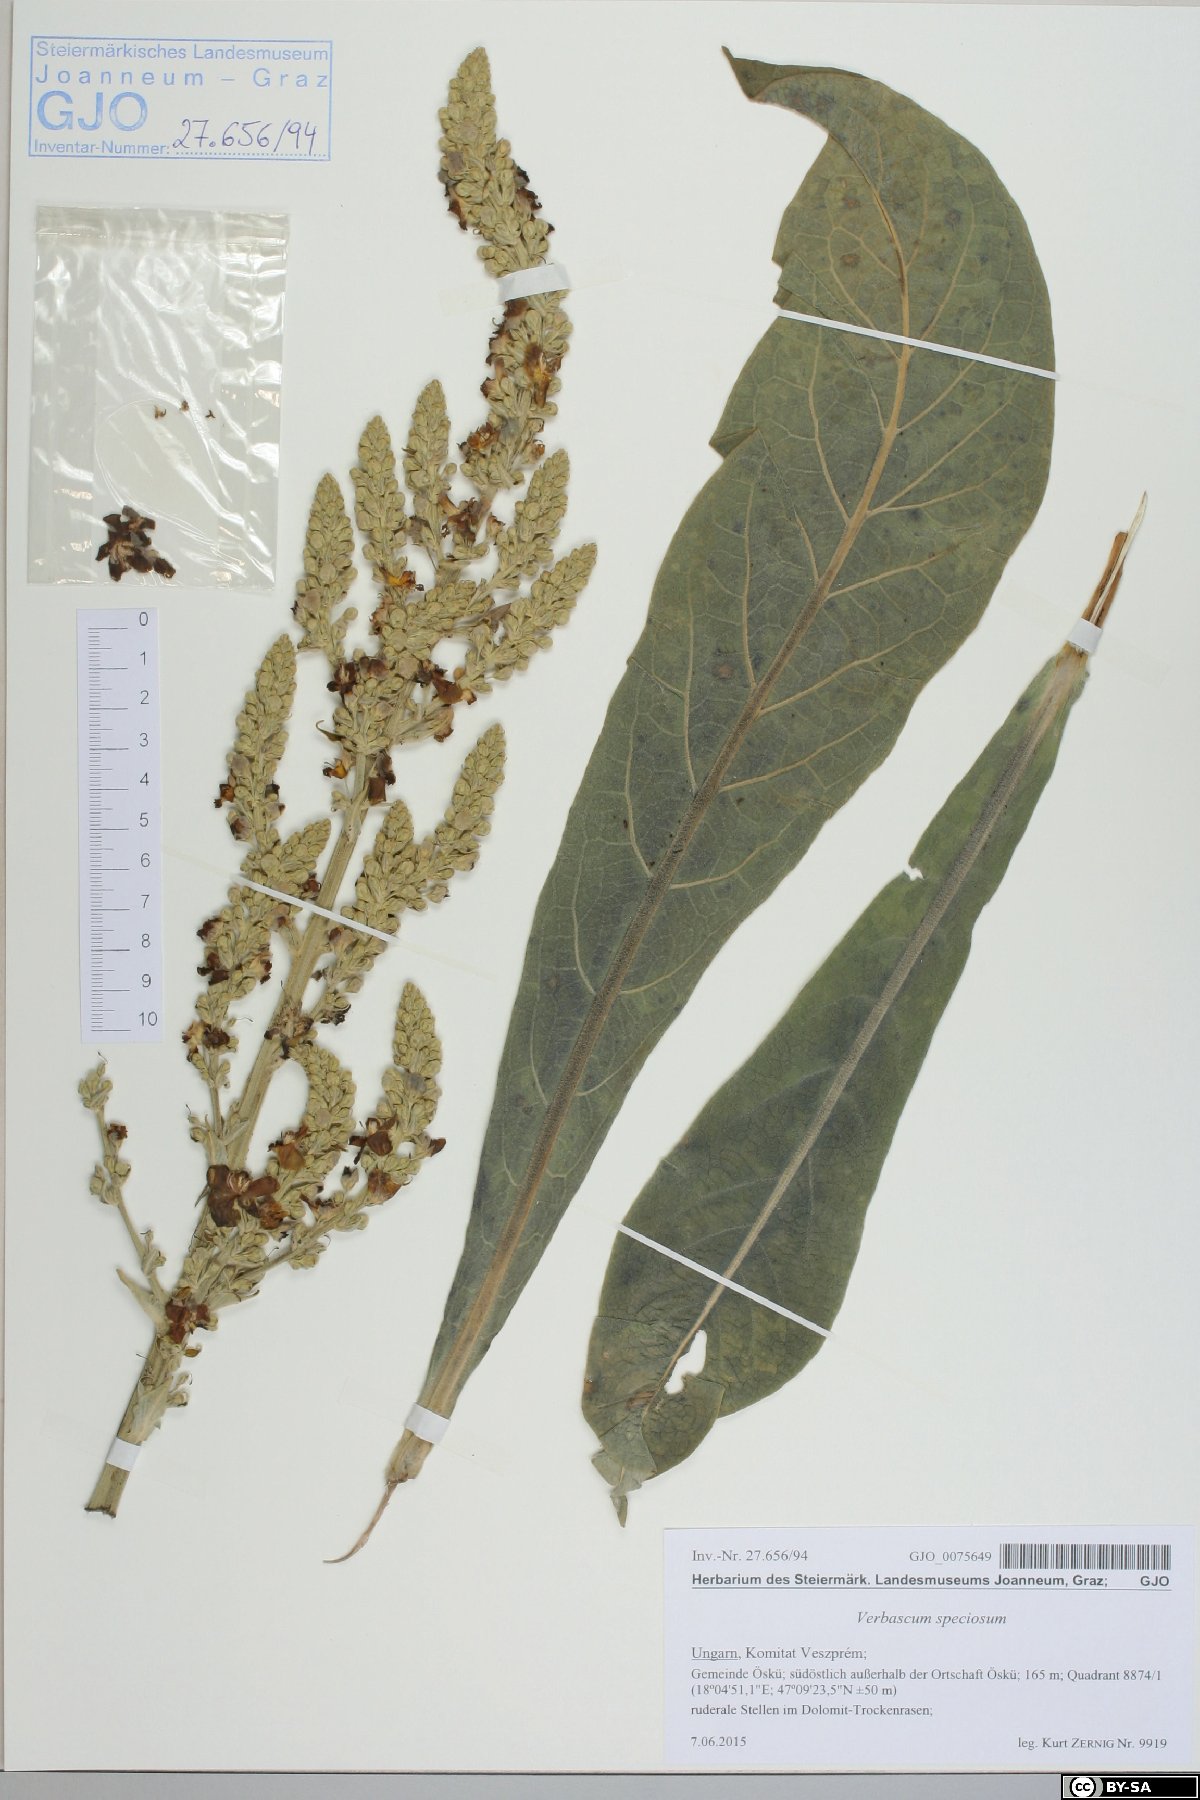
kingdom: Plantae
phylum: Tracheophyta
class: Magnoliopsida
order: Lamiales
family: Scrophulariaceae
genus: Verbascum
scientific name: Verbascum speciosum
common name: Hungarian mullein
